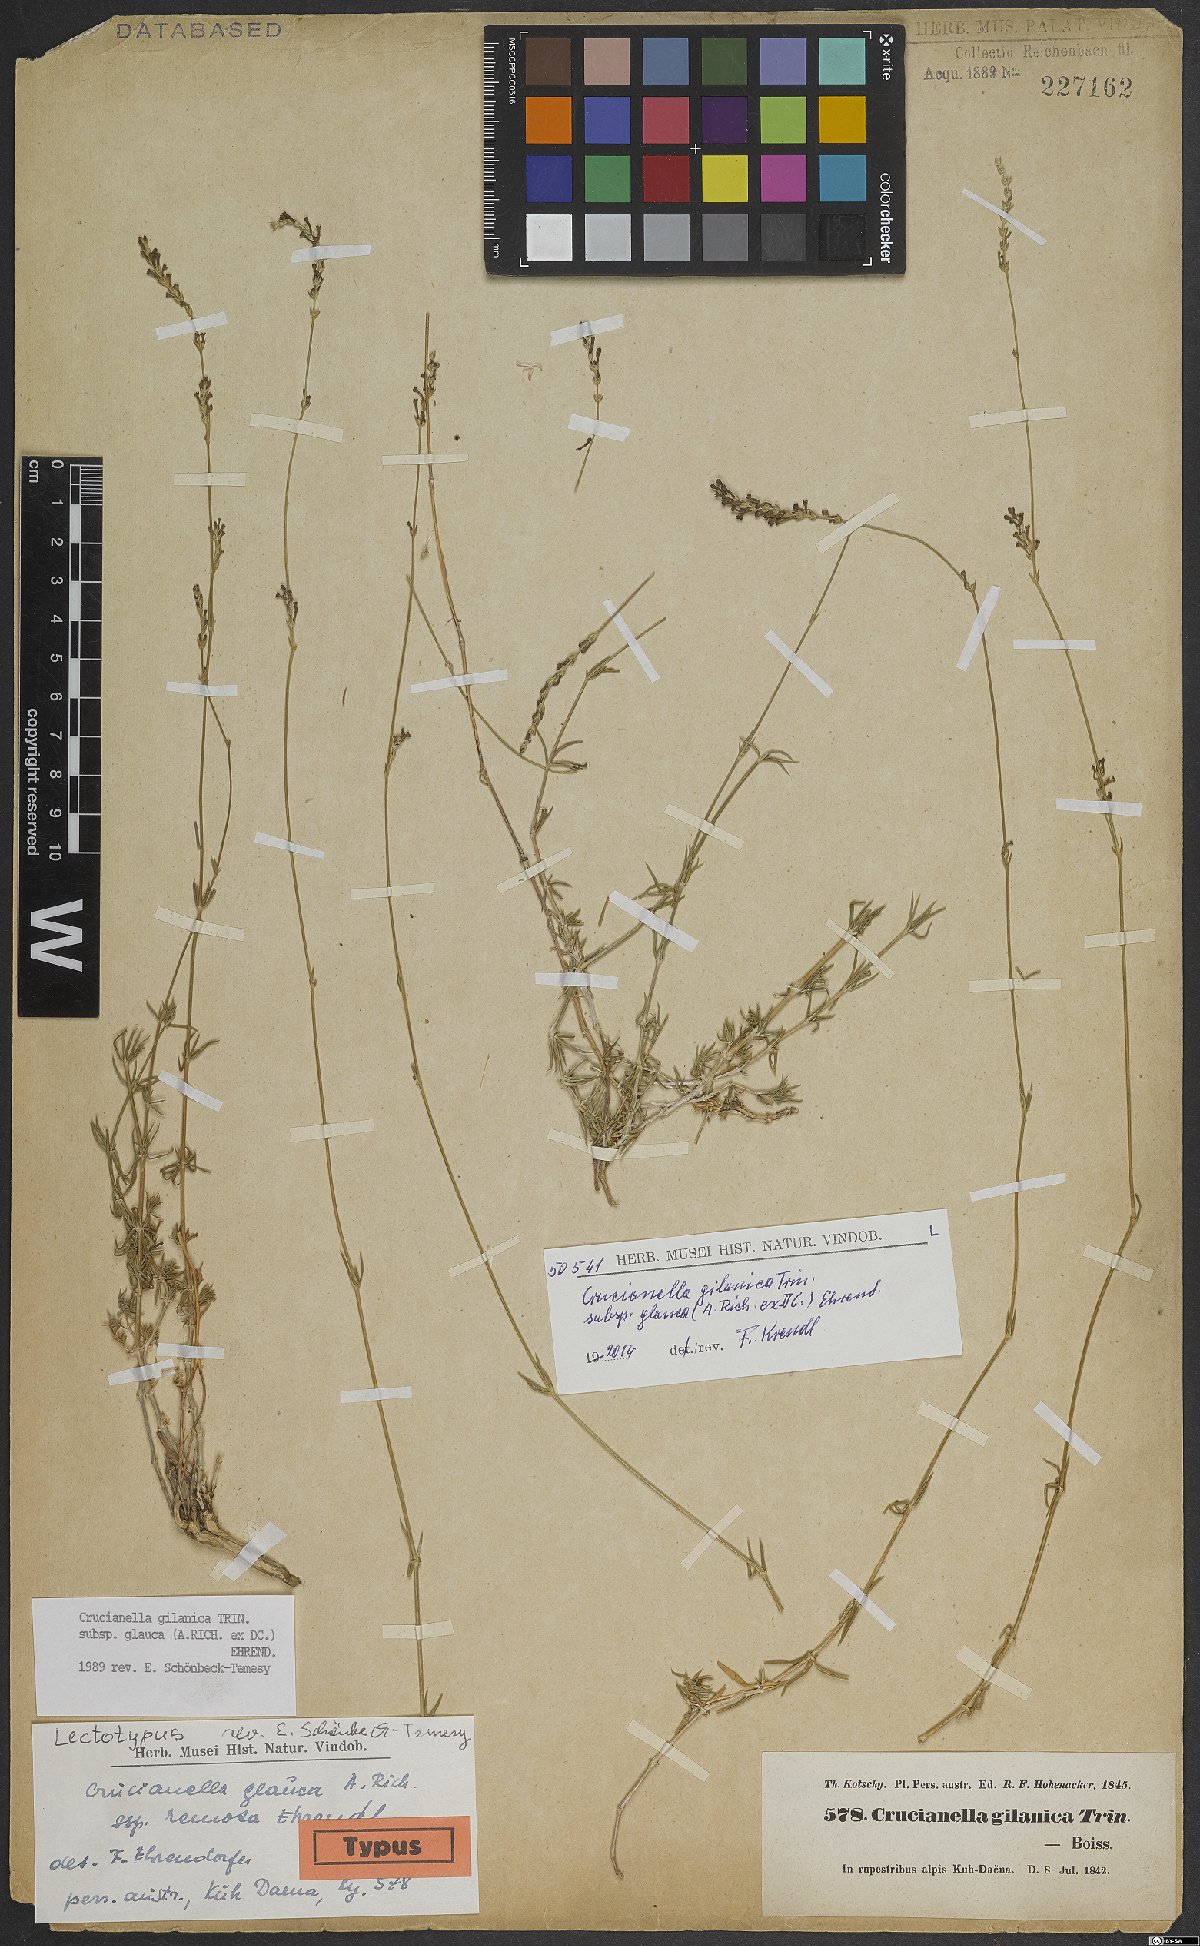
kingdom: Plantae
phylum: Tracheophyta
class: Magnoliopsida
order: Gentianales
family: Rubiaceae
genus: Crucianella
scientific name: Crucianella gilanica
